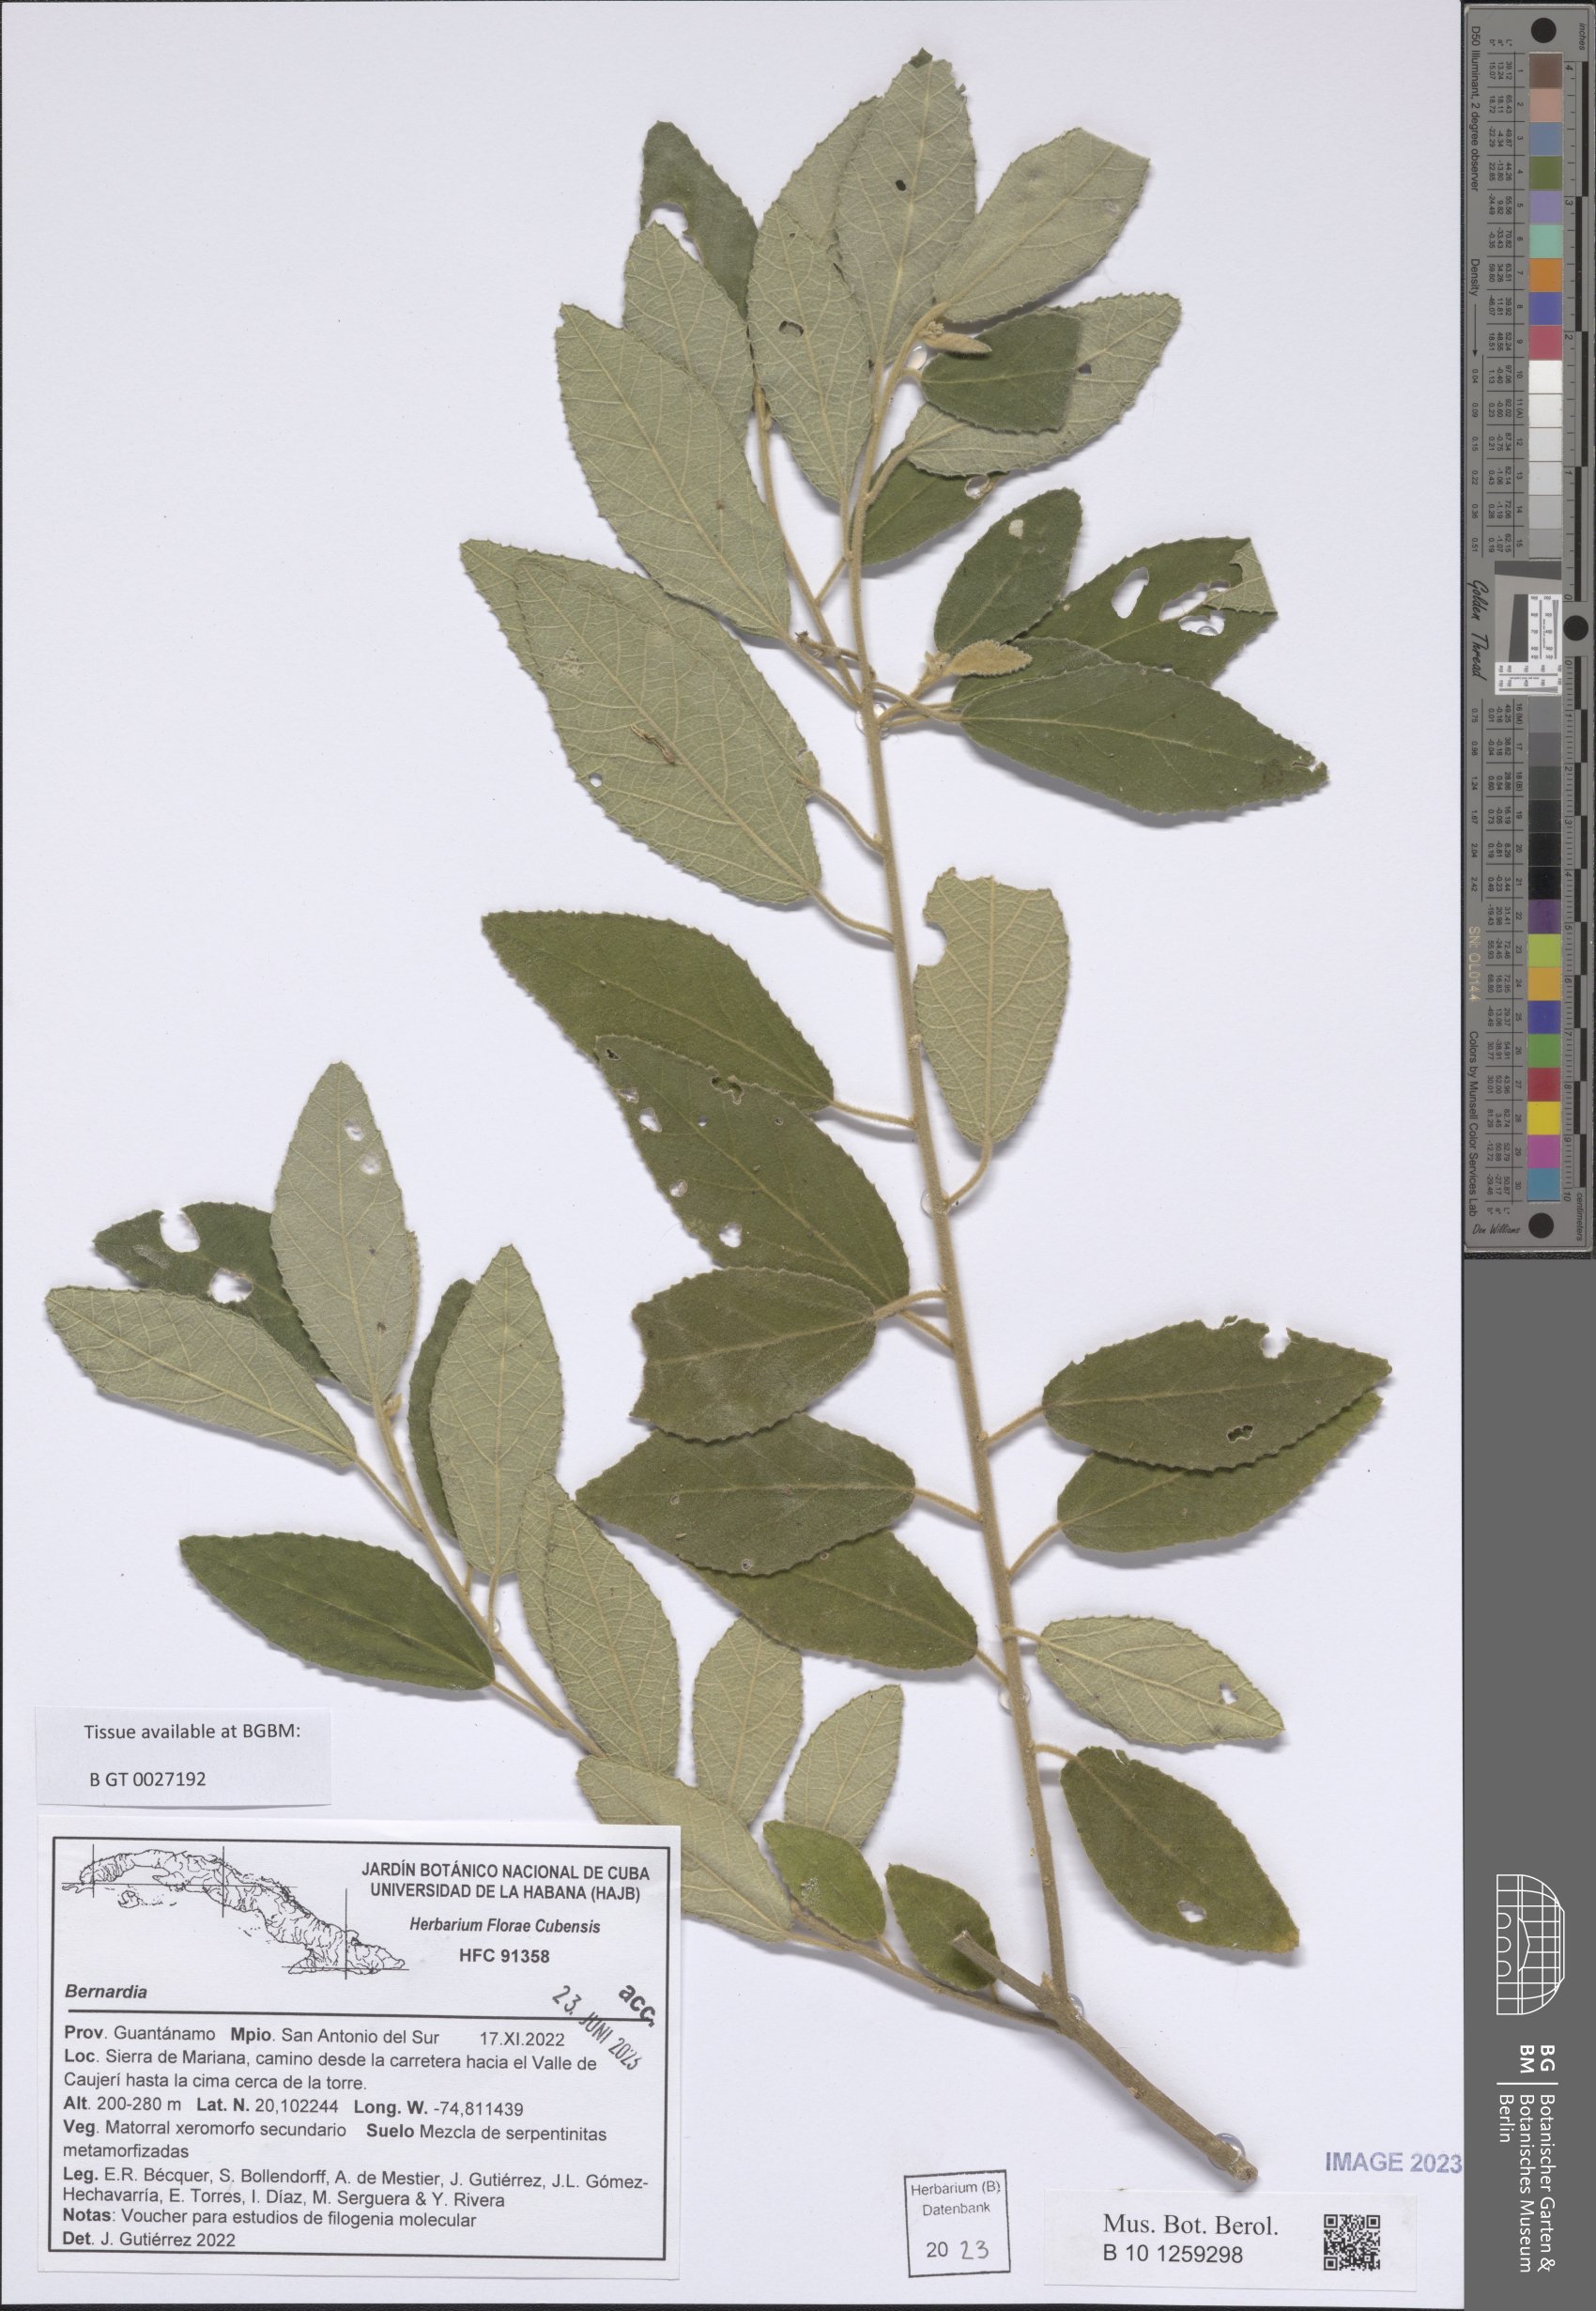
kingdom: Plantae
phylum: Tracheophyta
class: Magnoliopsida
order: Malpighiales
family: Euphorbiaceae
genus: Bernardia
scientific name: Bernardia
